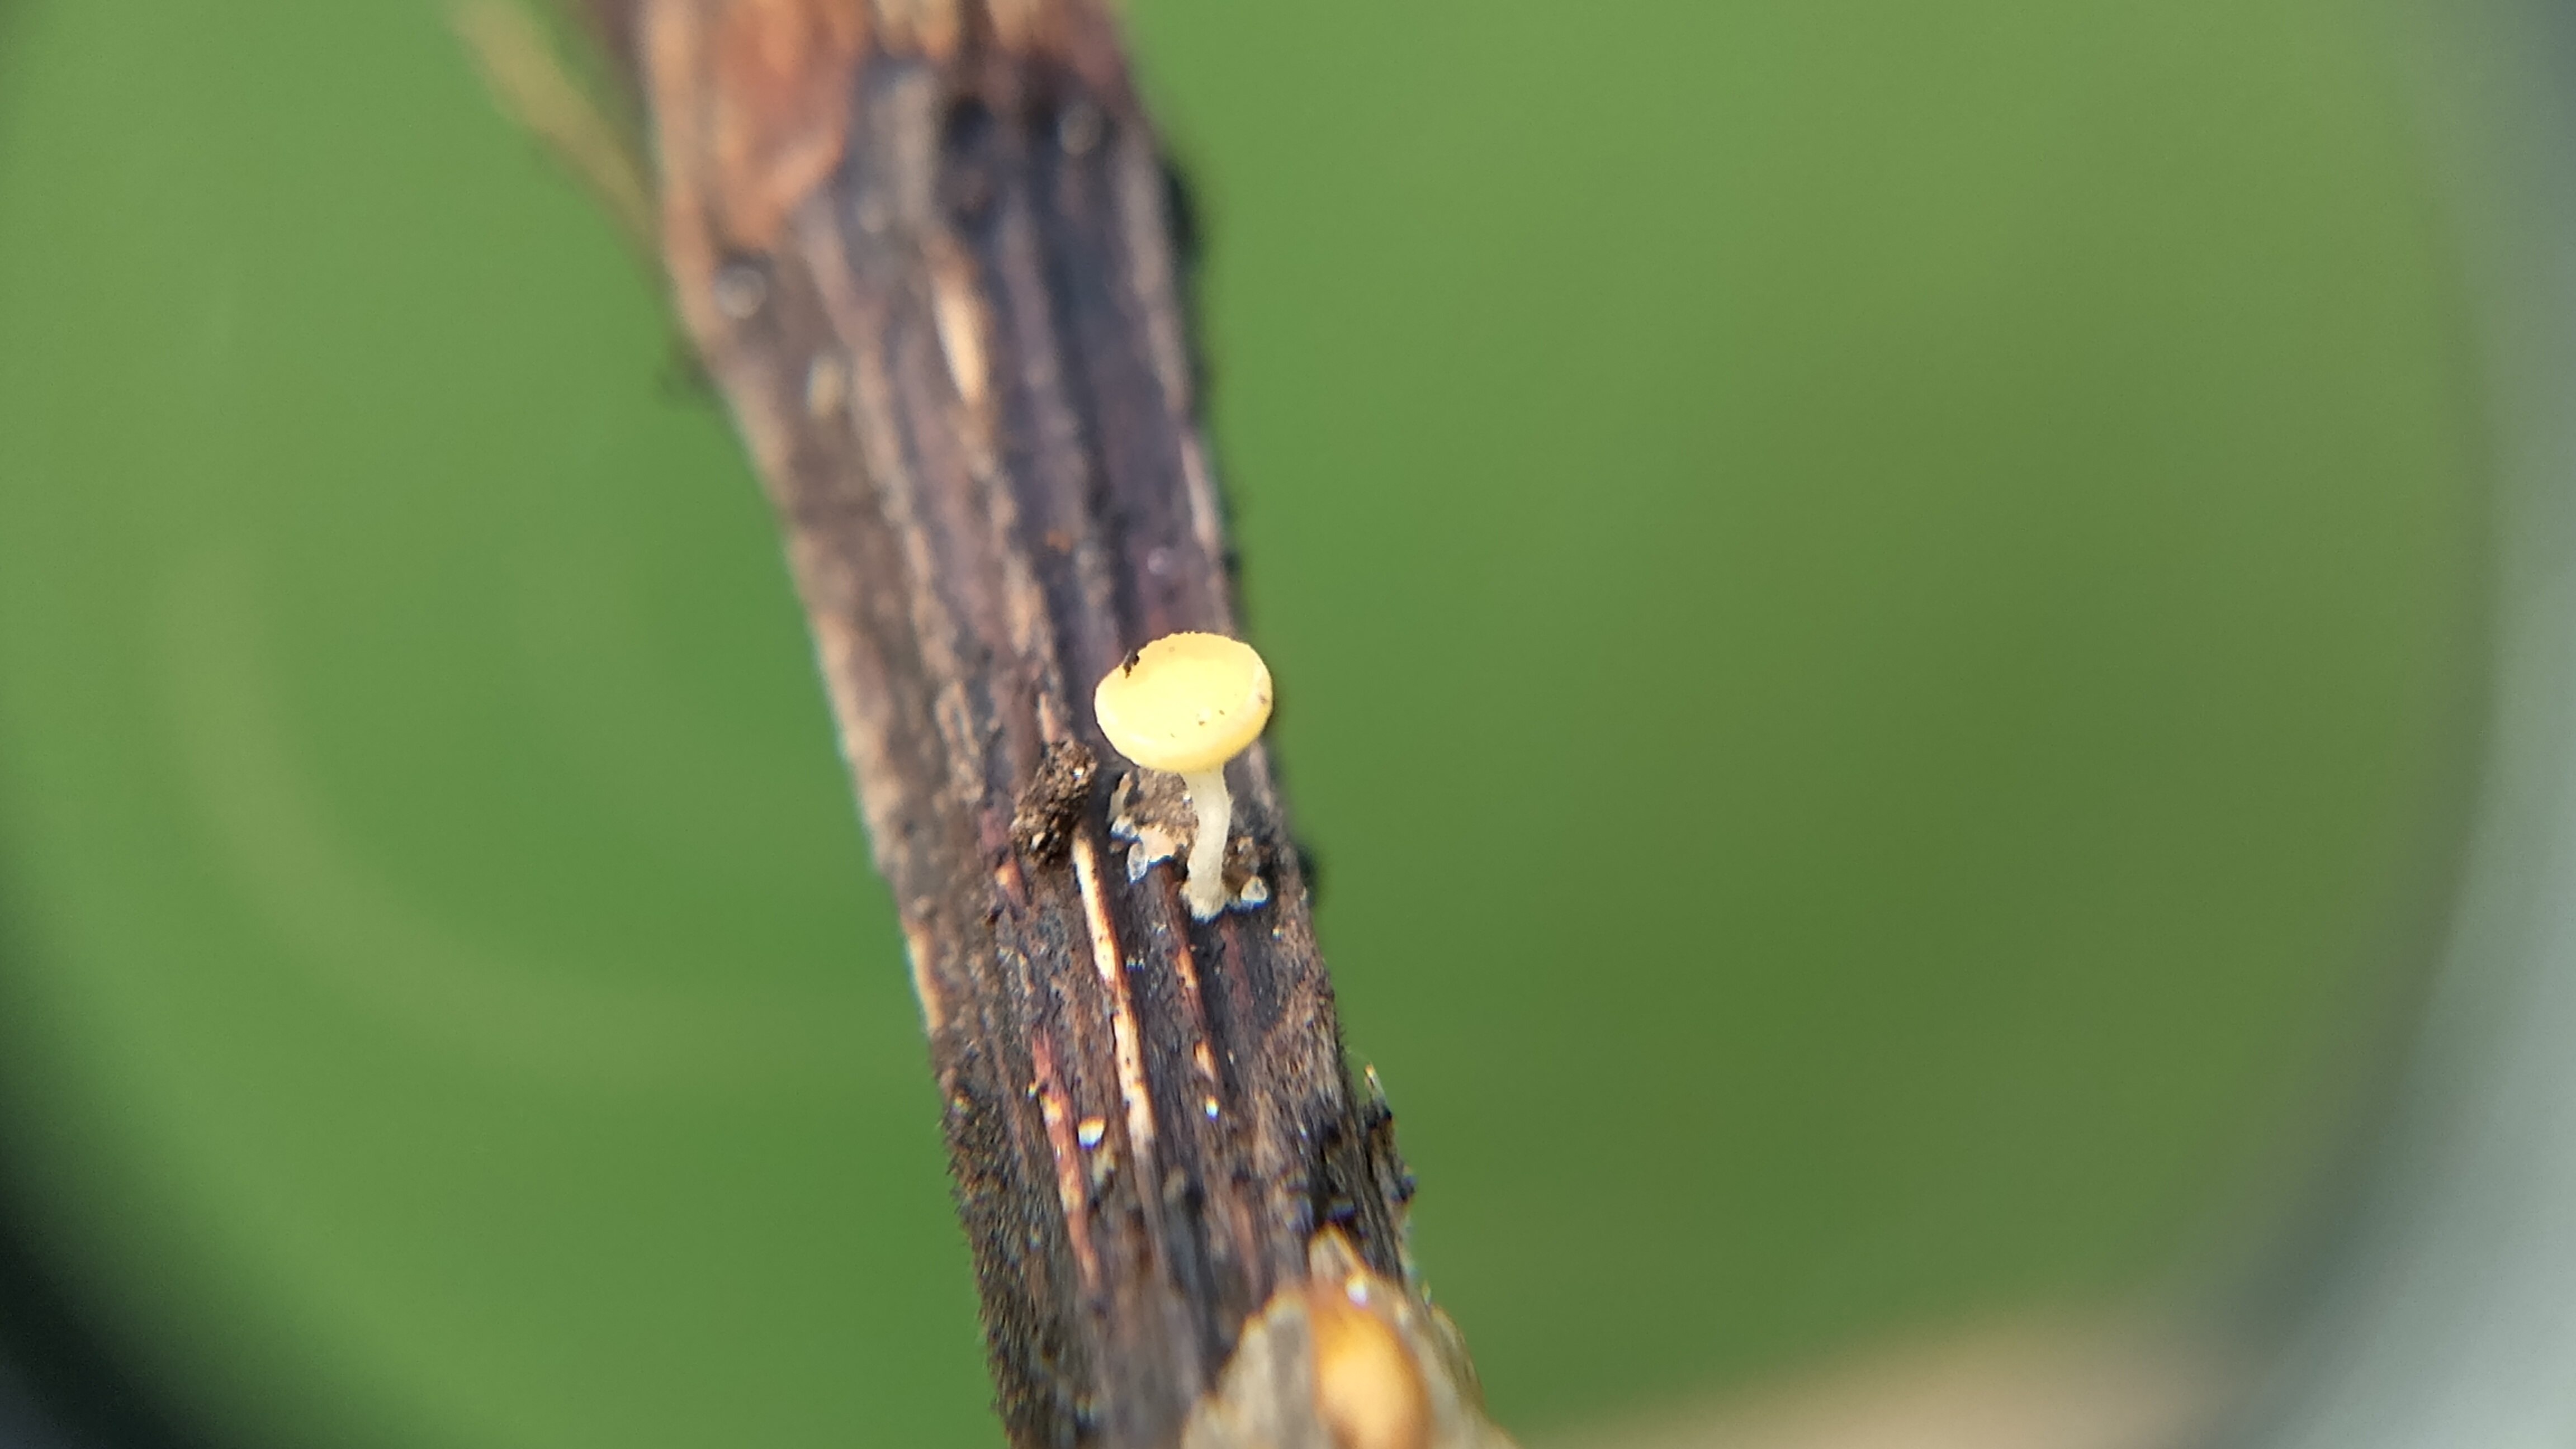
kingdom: Fungi
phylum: Ascomycota
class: Leotiomycetes
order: Helotiales
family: Helotiaceae
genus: Hymenoscyphus
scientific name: Hymenoscyphus
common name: stilkskive
